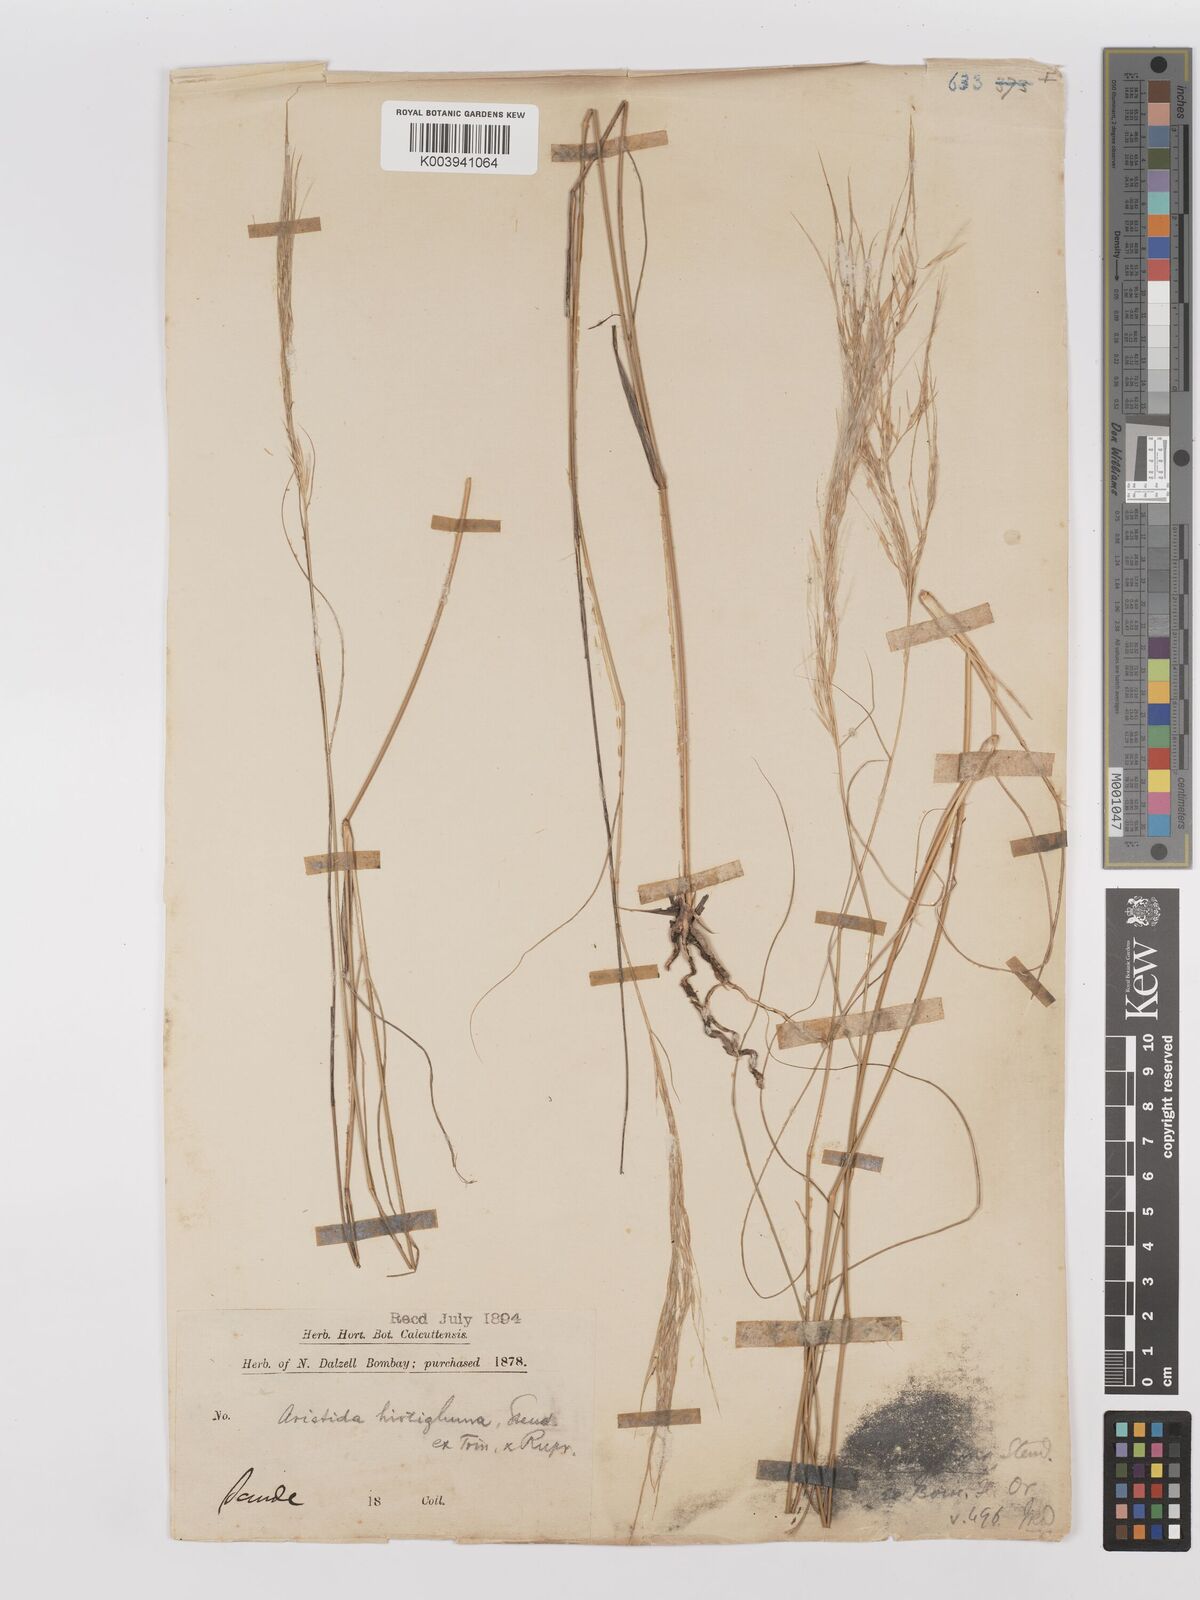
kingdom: Plantae
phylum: Tracheophyta
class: Liliopsida
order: Poales
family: Poaceae
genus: Stipagrostis
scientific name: Stipagrostis hirtigluma
